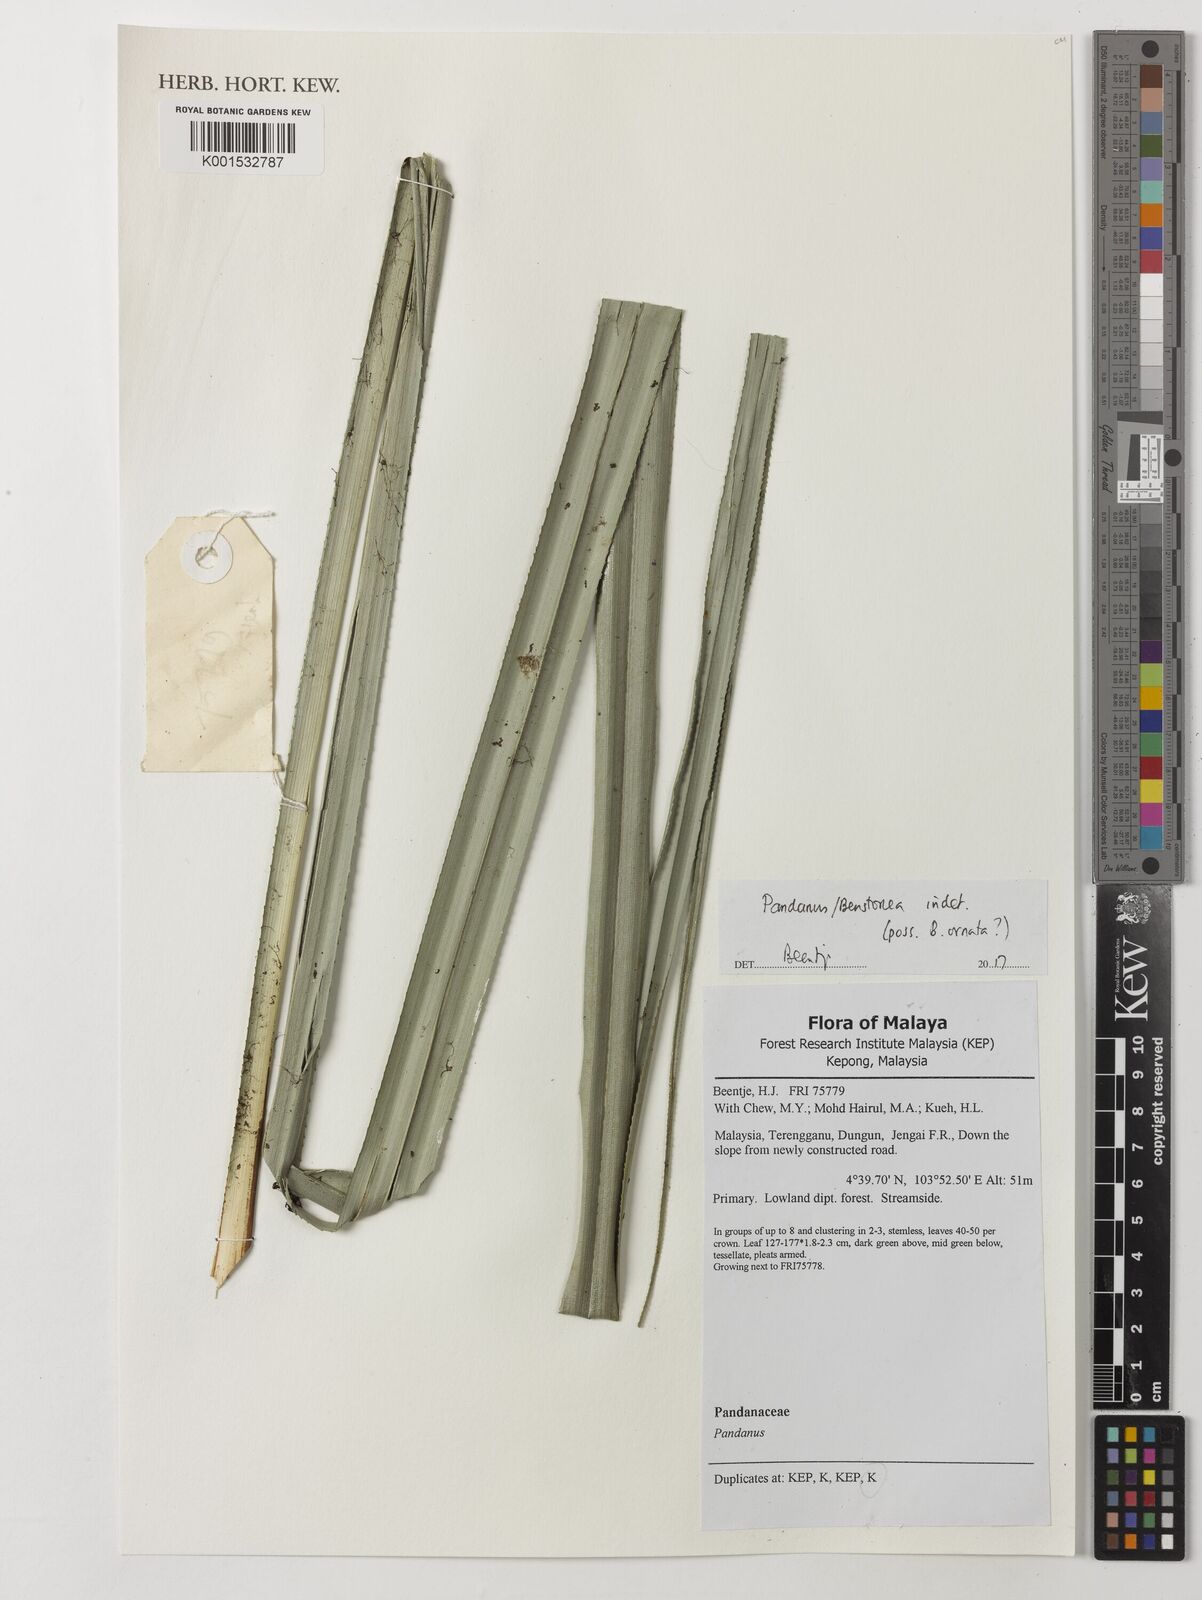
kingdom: Plantae
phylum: Tracheophyta
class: Liliopsida
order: Pandanales
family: Pandanaceae
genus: Pandanus
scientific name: Pandanus ornatus
